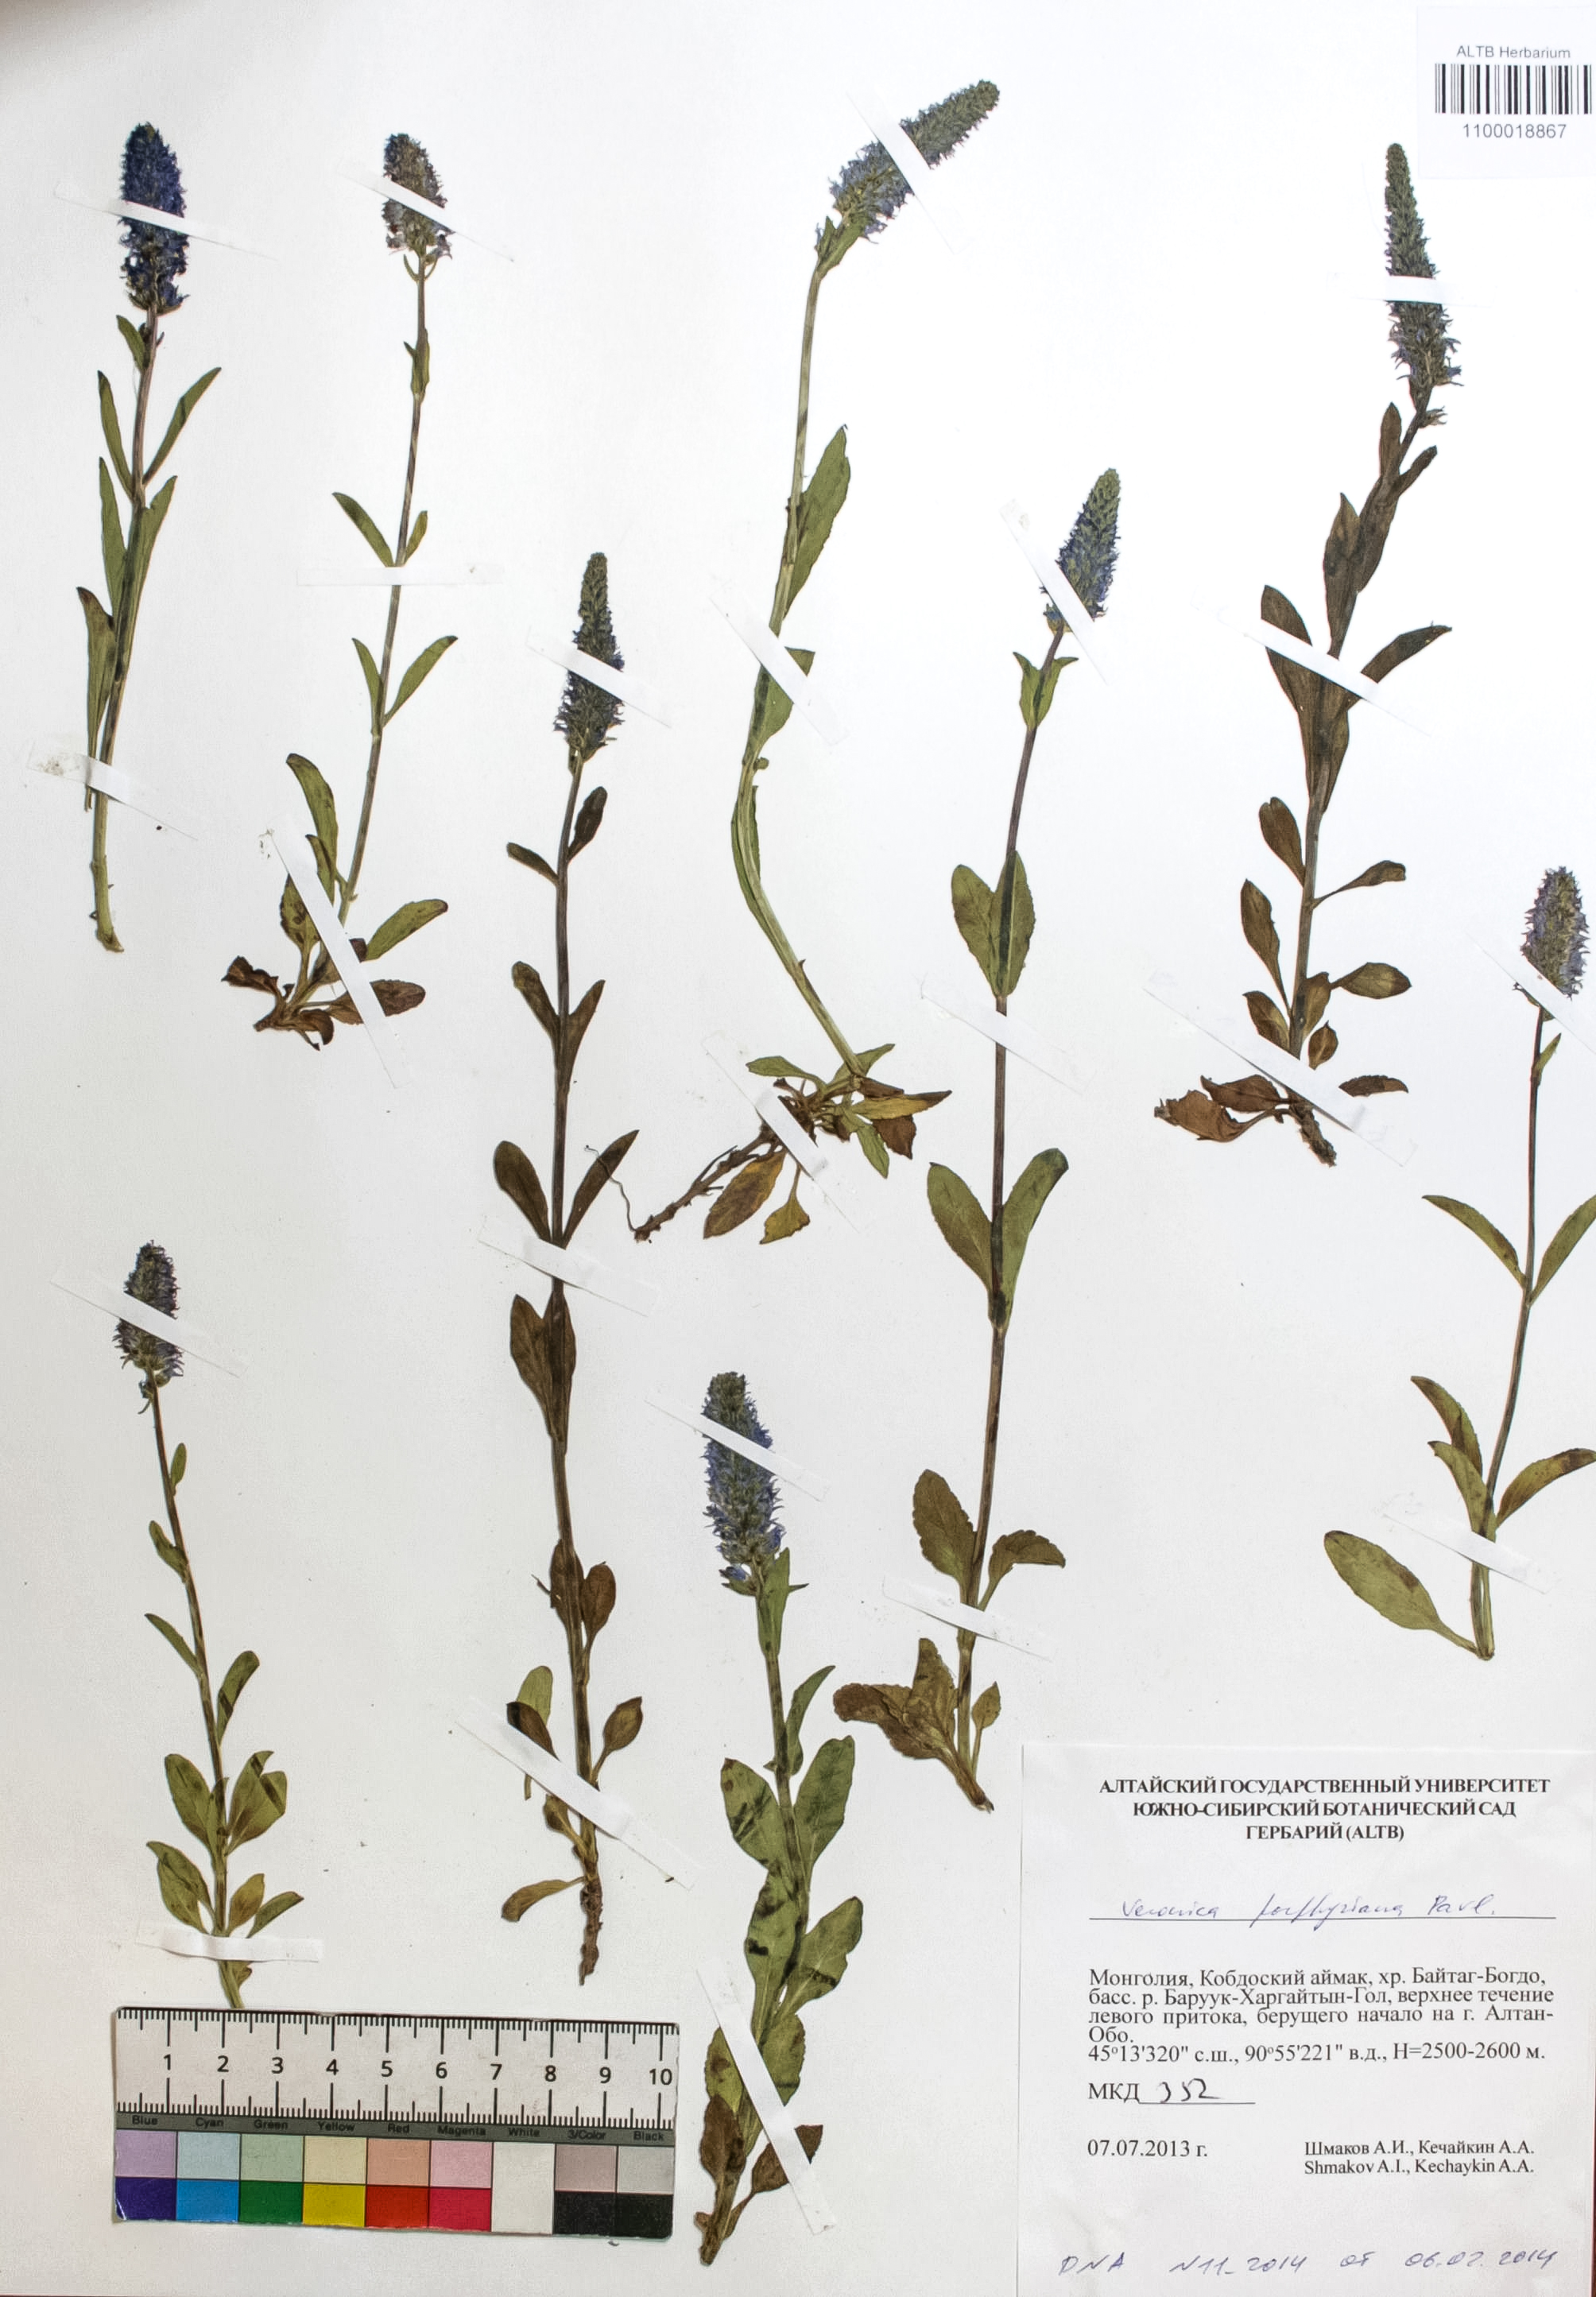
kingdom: Plantae
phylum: Tracheophyta
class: Magnoliopsida
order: Lamiales
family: Plantaginaceae
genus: Veronica
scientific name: Veronica porphyriana
